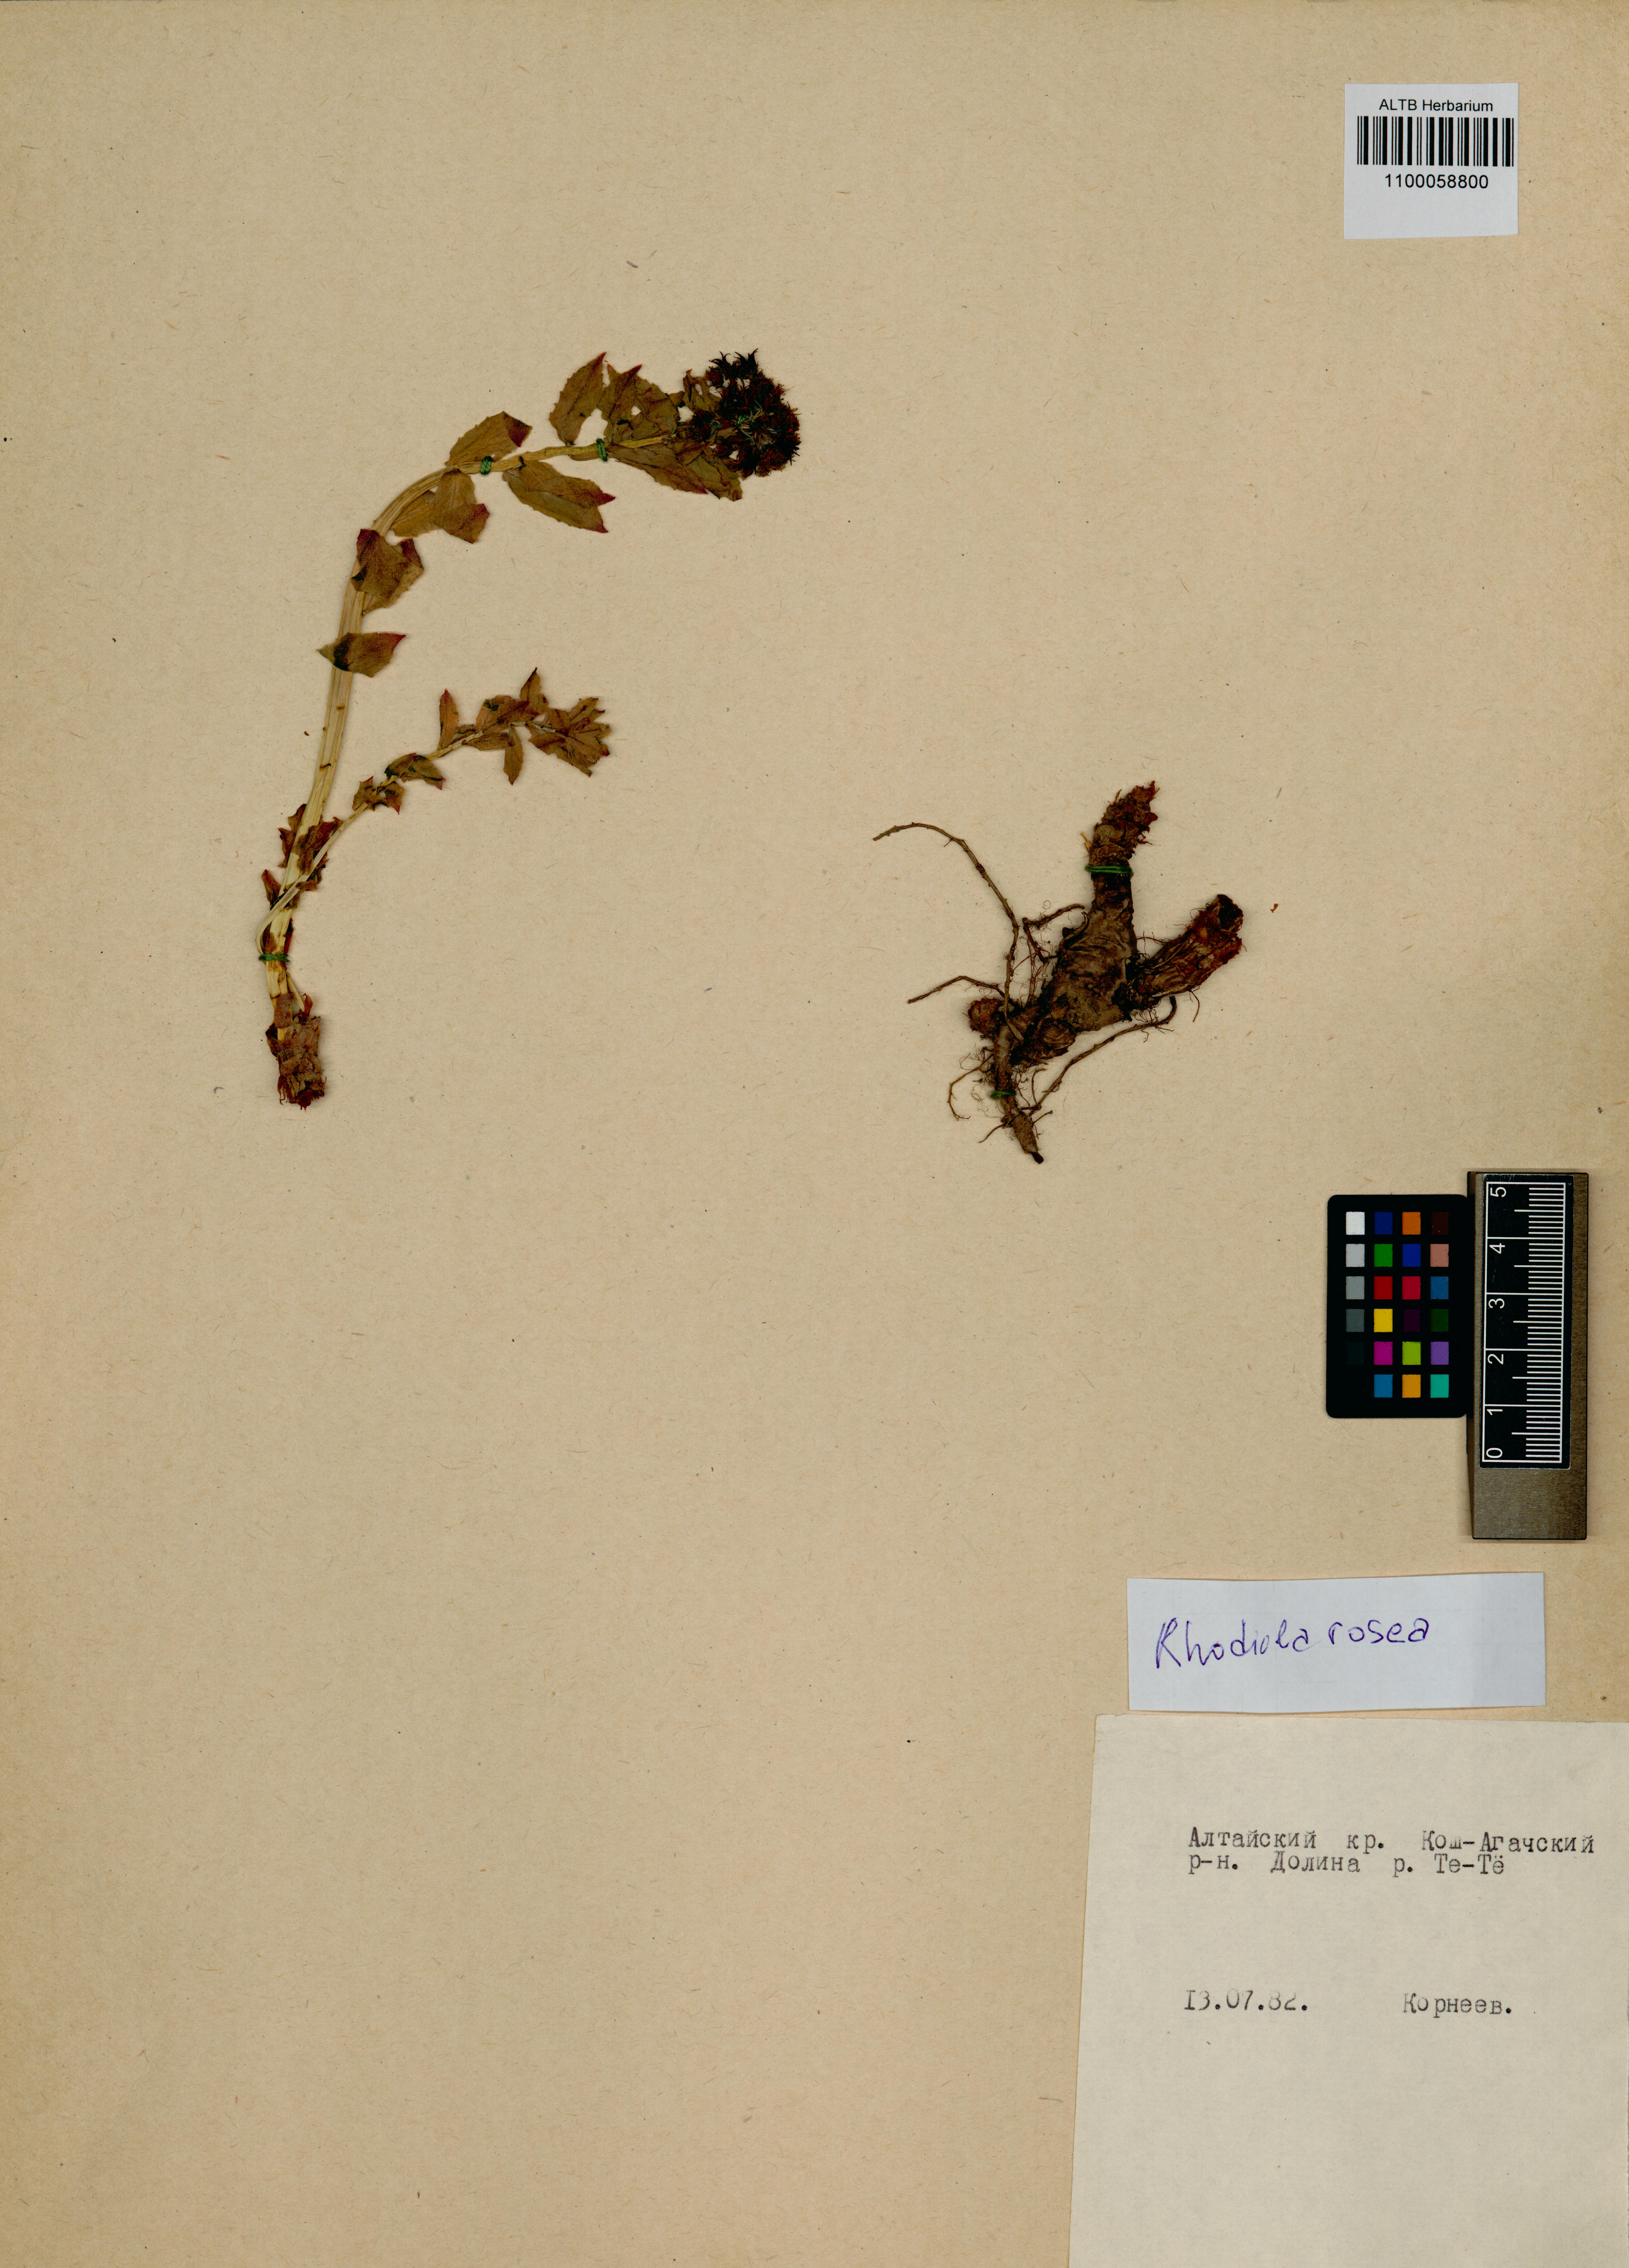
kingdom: Plantae
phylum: Tracheophyta
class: Magnoliopsida
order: Saxifragales
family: Crassulaceae
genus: Rhodiola
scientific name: Rhodiola rosea
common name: Roseroot
